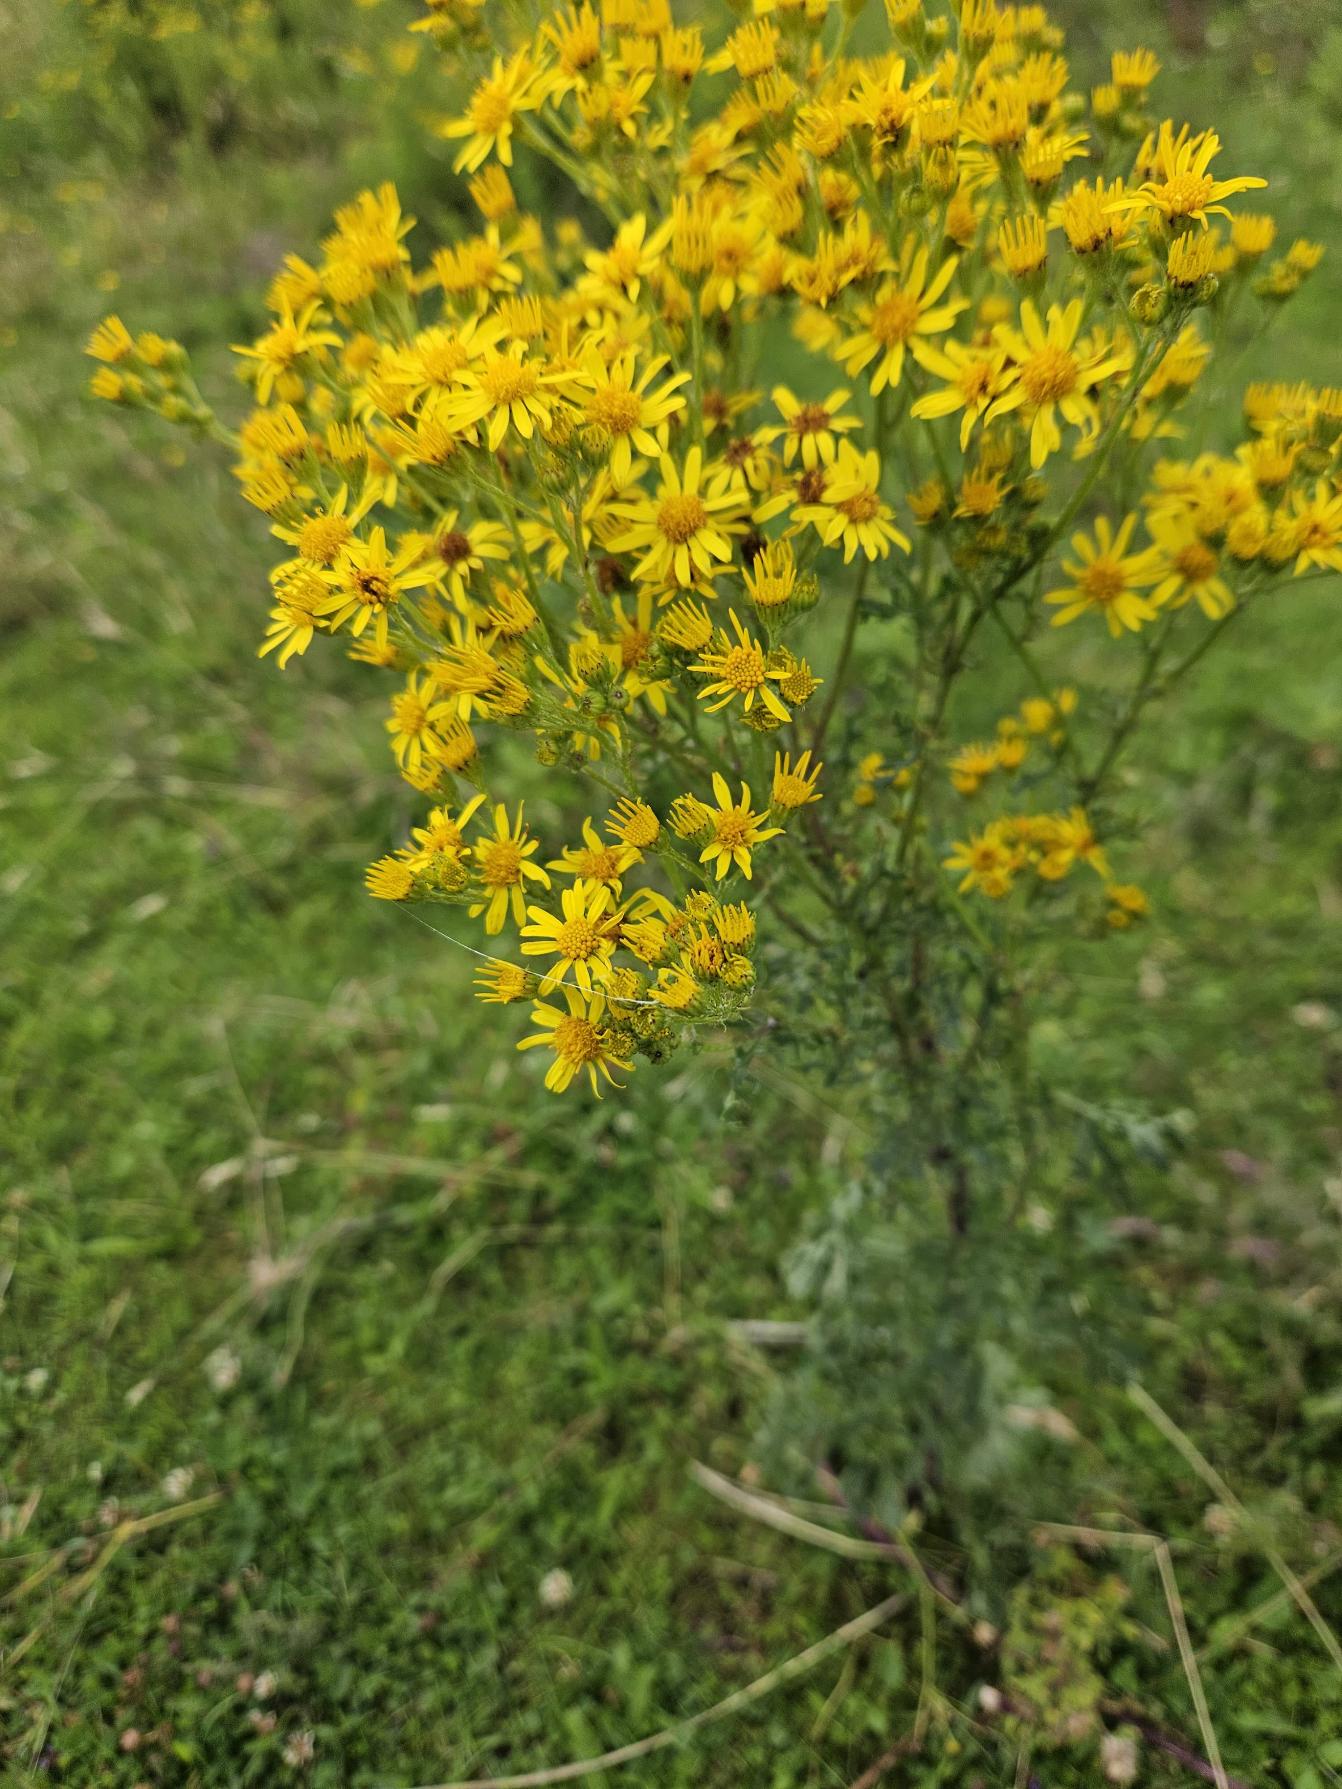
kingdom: Plantae
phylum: Tracheophyta
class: Magnoliopsida
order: Asterales
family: Asteraceae
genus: Jacobaea
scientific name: Jacobaea vulgaris
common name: Eng-brandbæger
